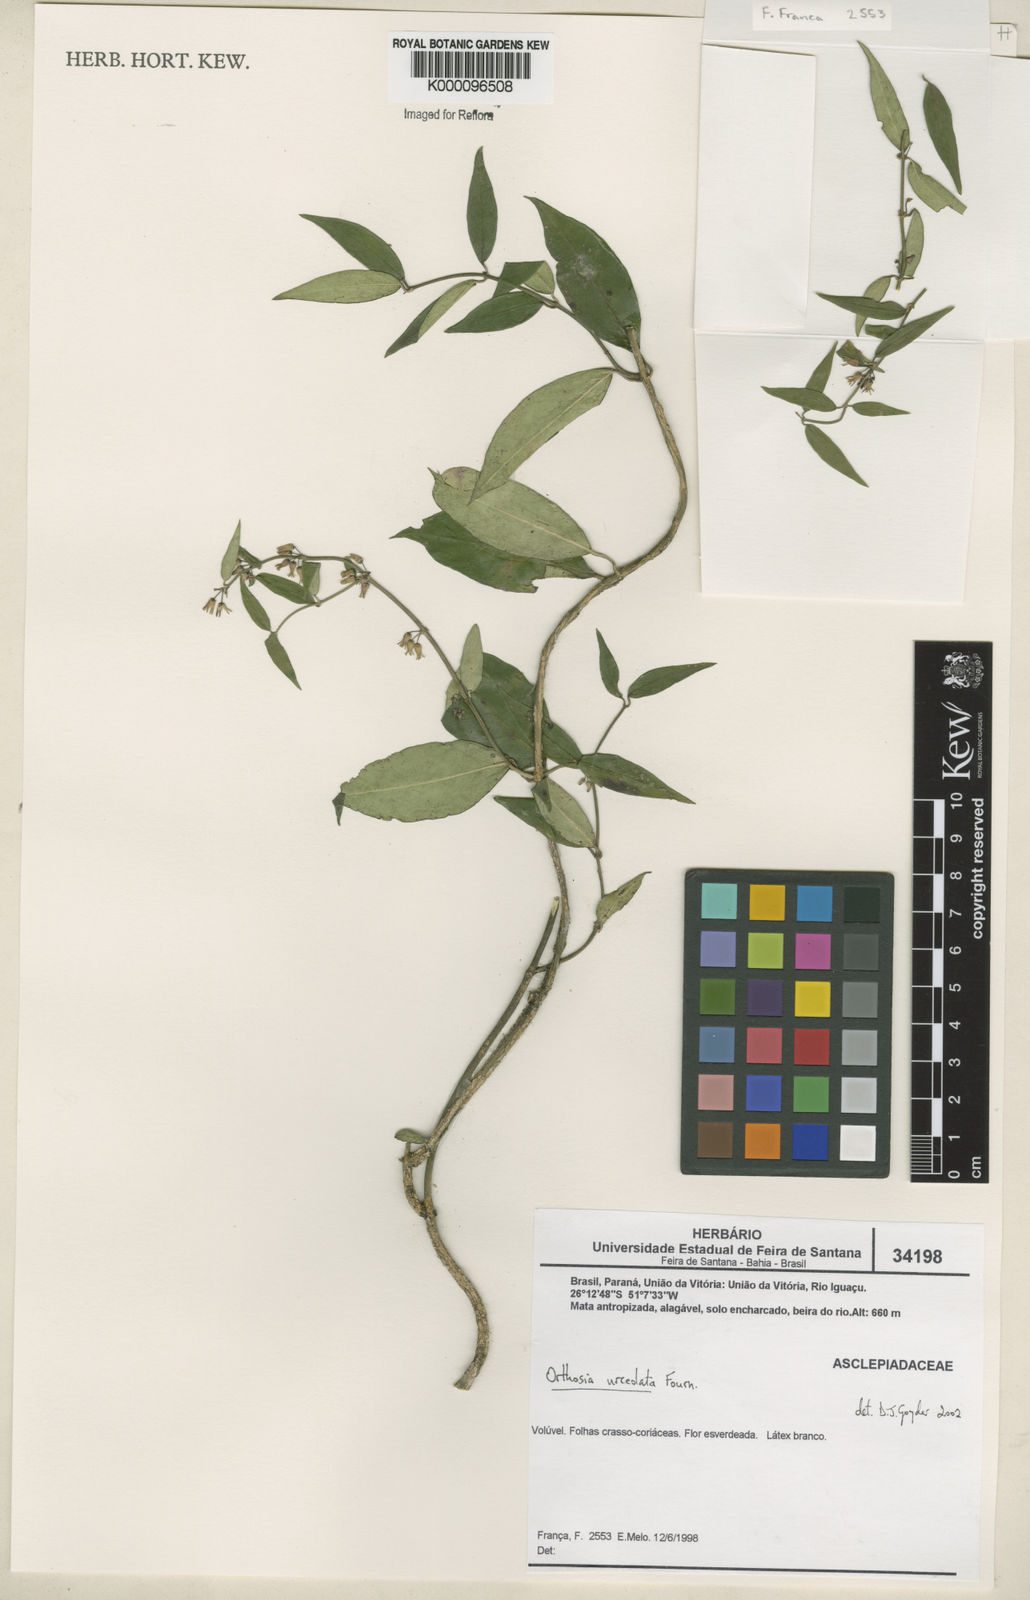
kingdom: Plantae
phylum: Tracheophyta
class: Magnoliopsida
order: Gentianales
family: Apocynaceae
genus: Orthosia
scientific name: Orthosia urceolata
